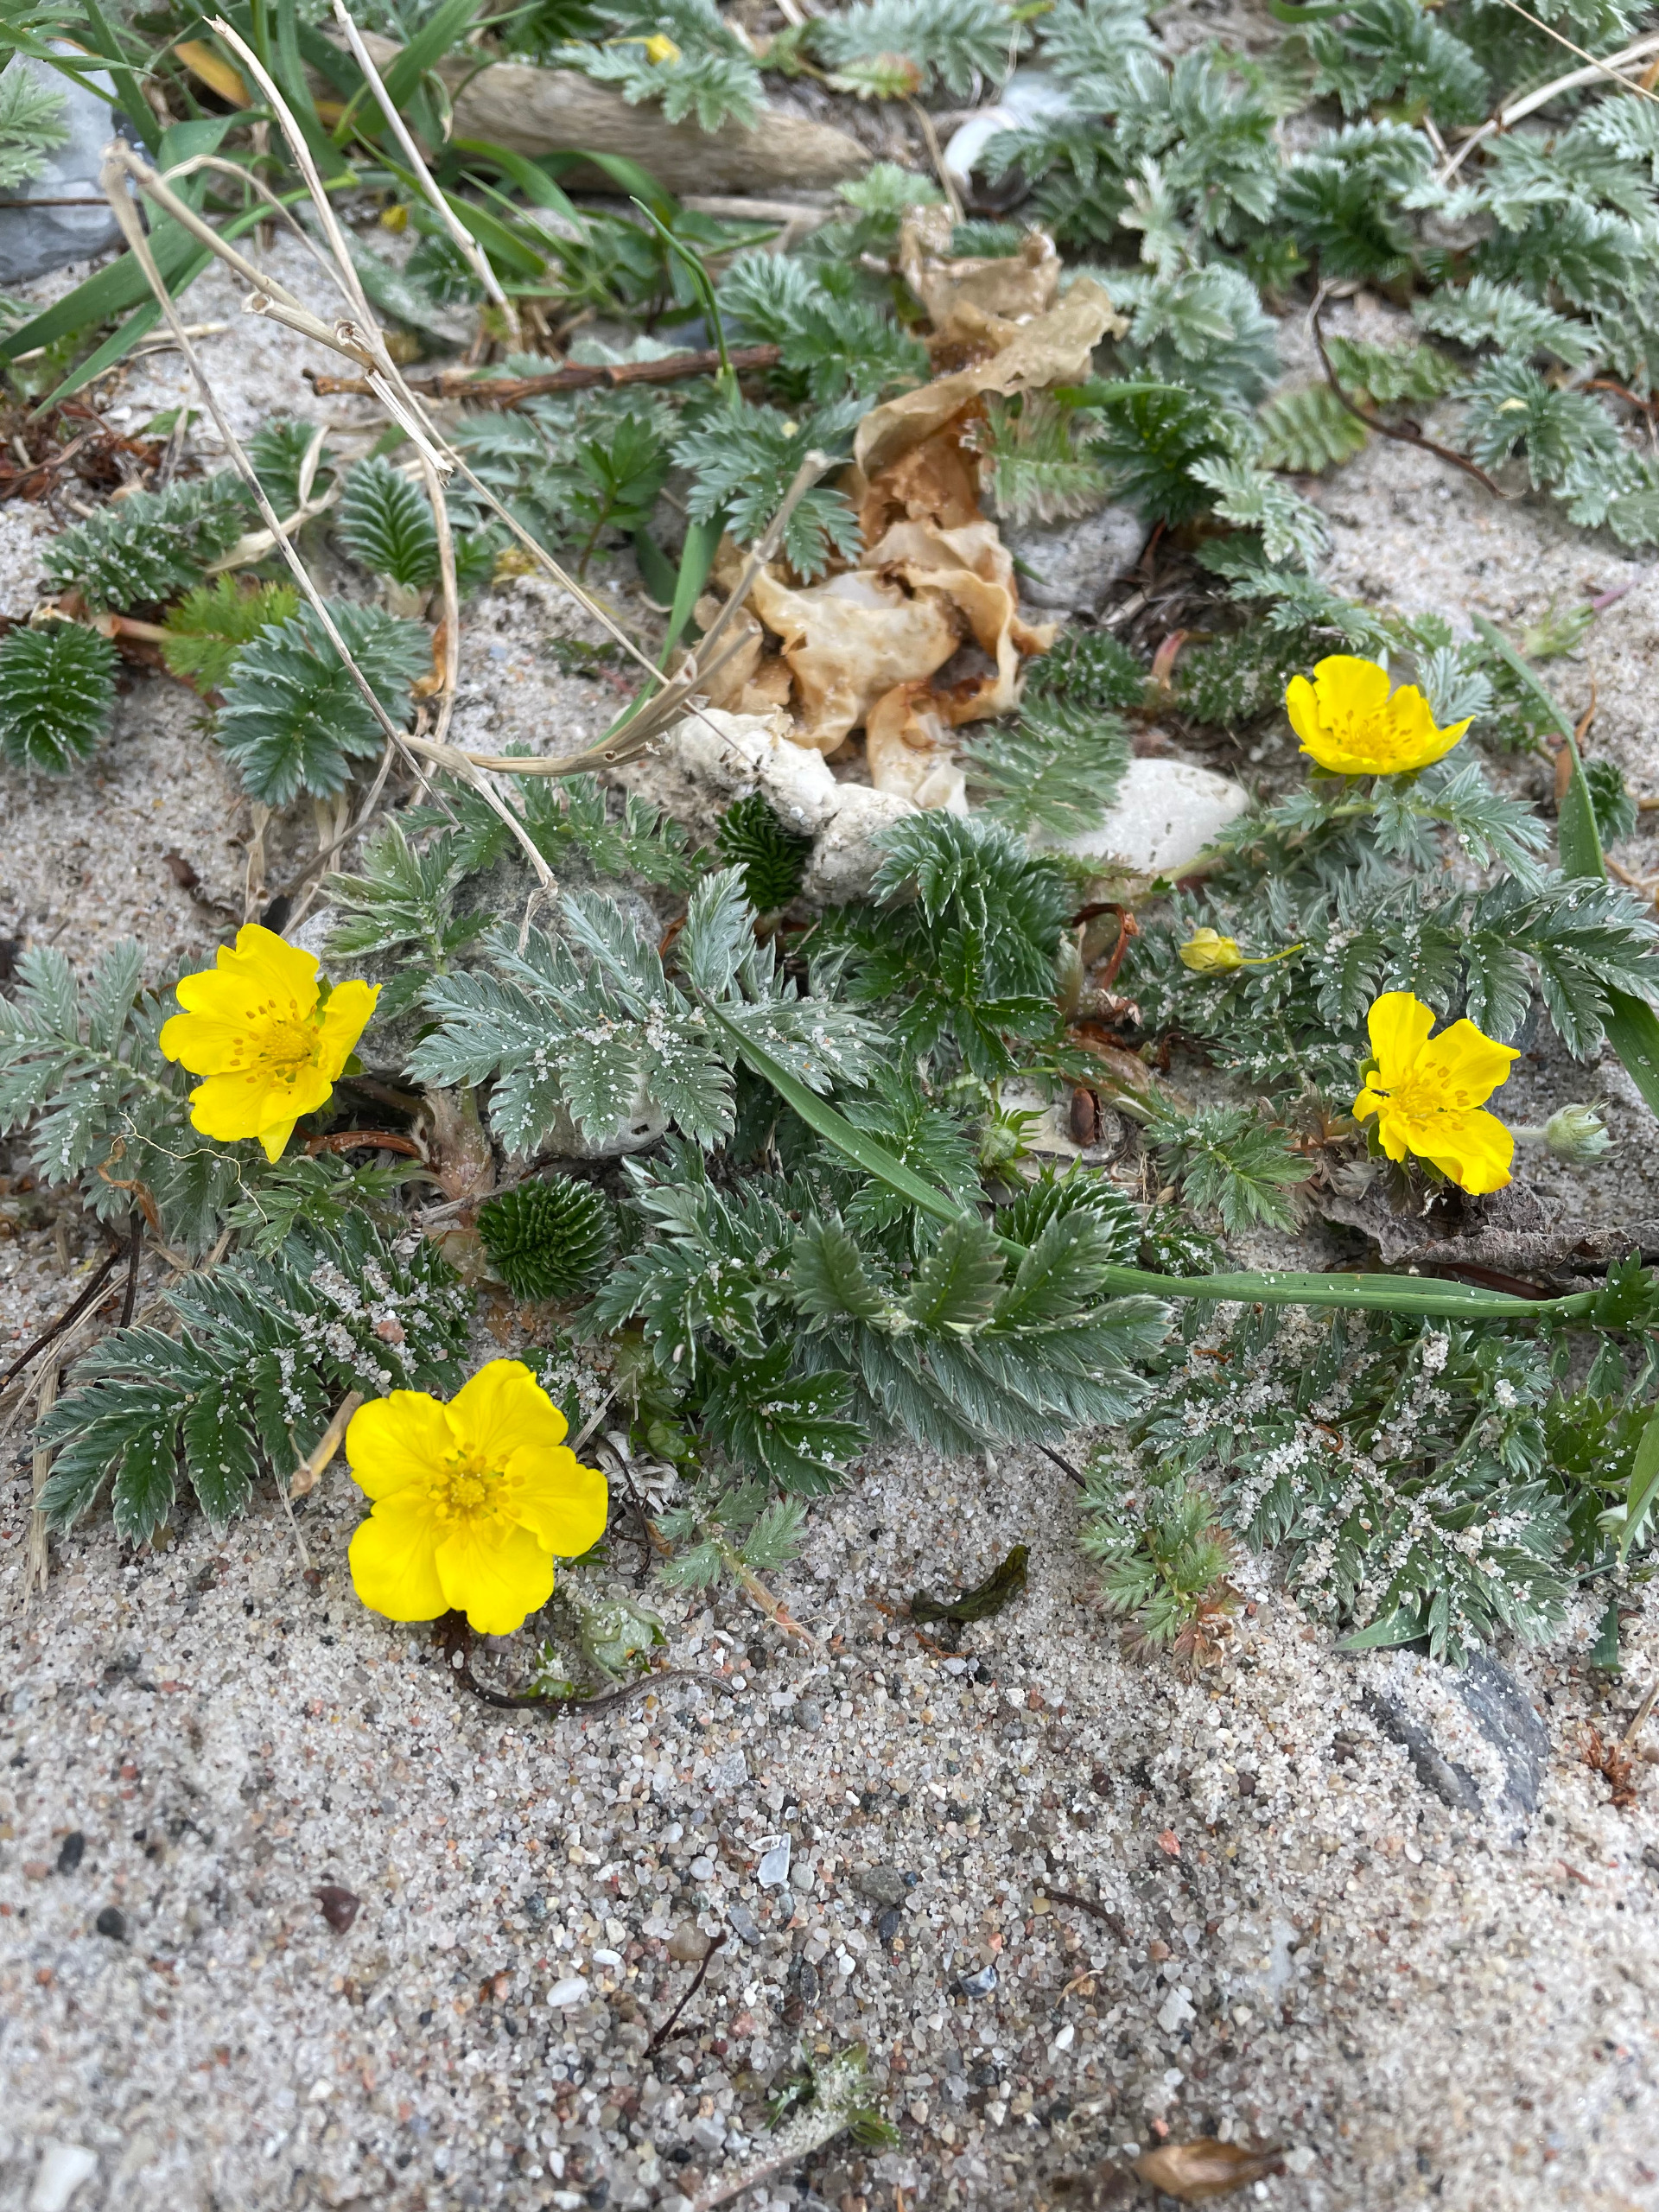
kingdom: Plantae
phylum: Tracheophyta
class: Magnoliopsida
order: Rosales
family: Rosaceae
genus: Argentina
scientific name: Argentina anserina
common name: Gåsepotentil
